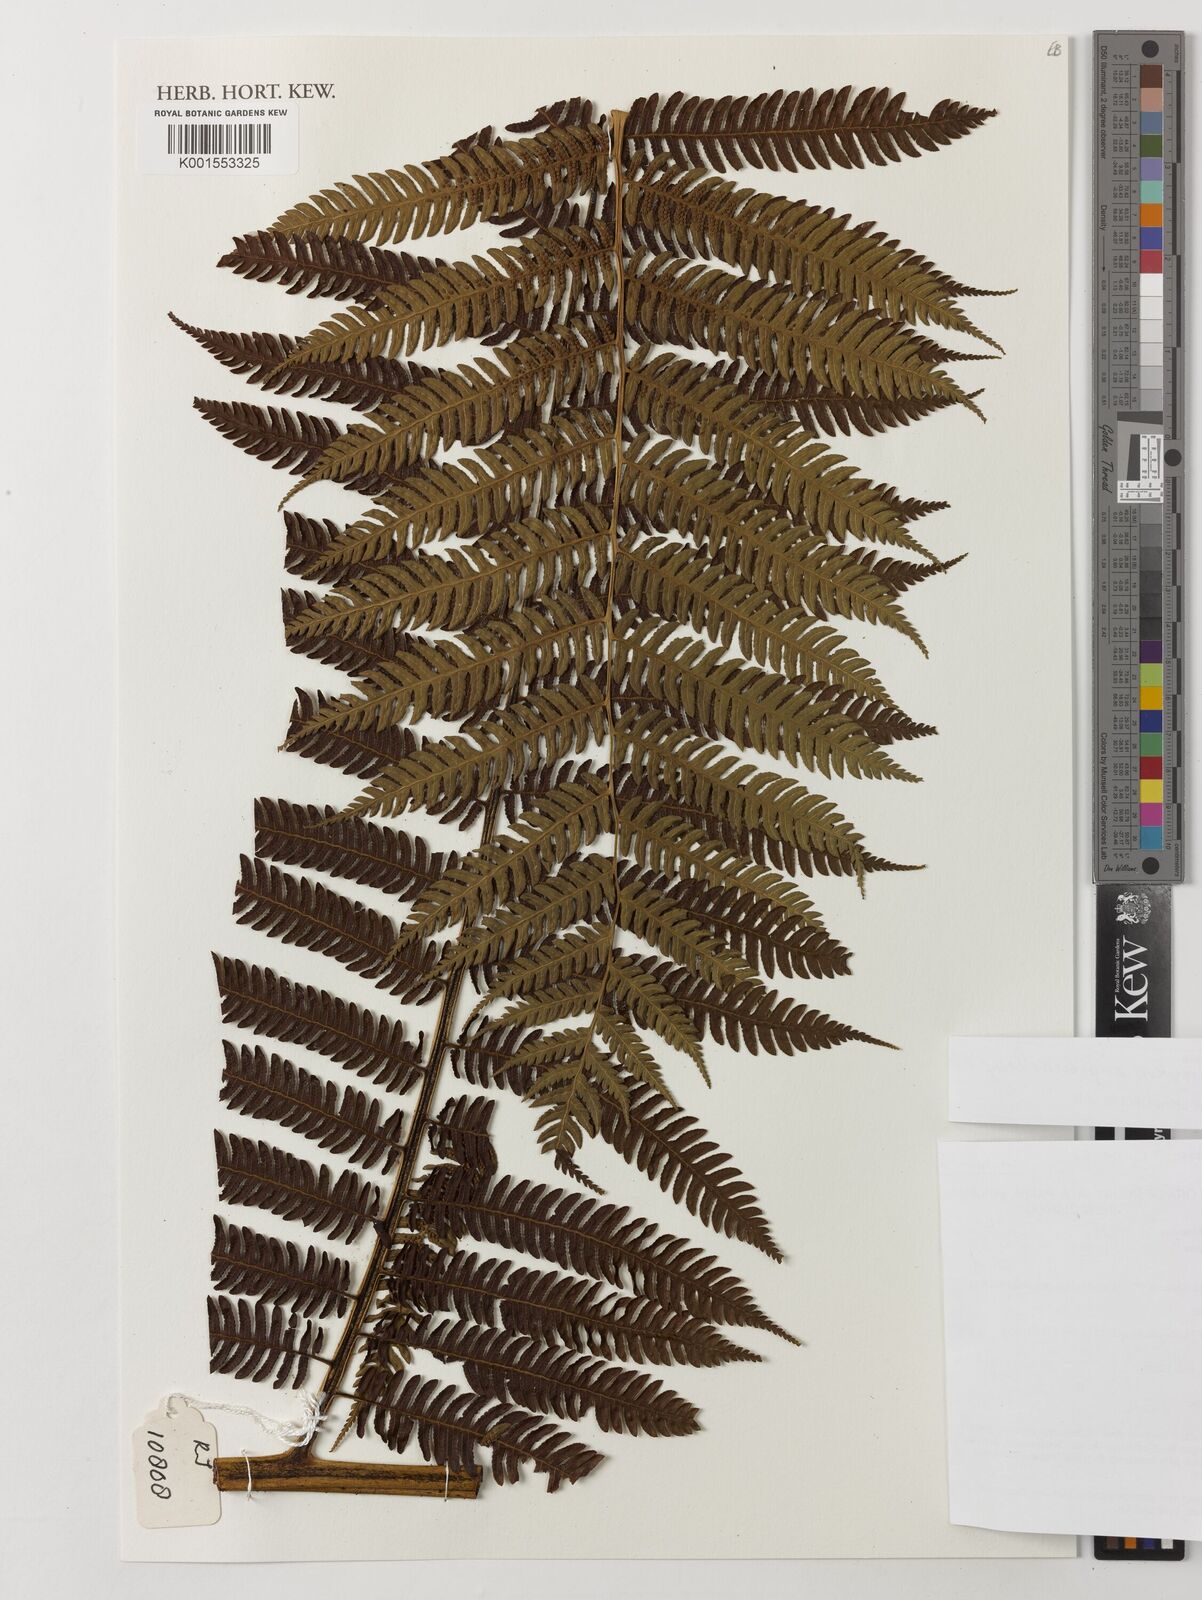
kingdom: Plantae
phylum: Tracheophyta
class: Polypodiopsida
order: Cyatheales
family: Cyatheaceae
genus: Sphaeropteris
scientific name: Sphaeropteris
